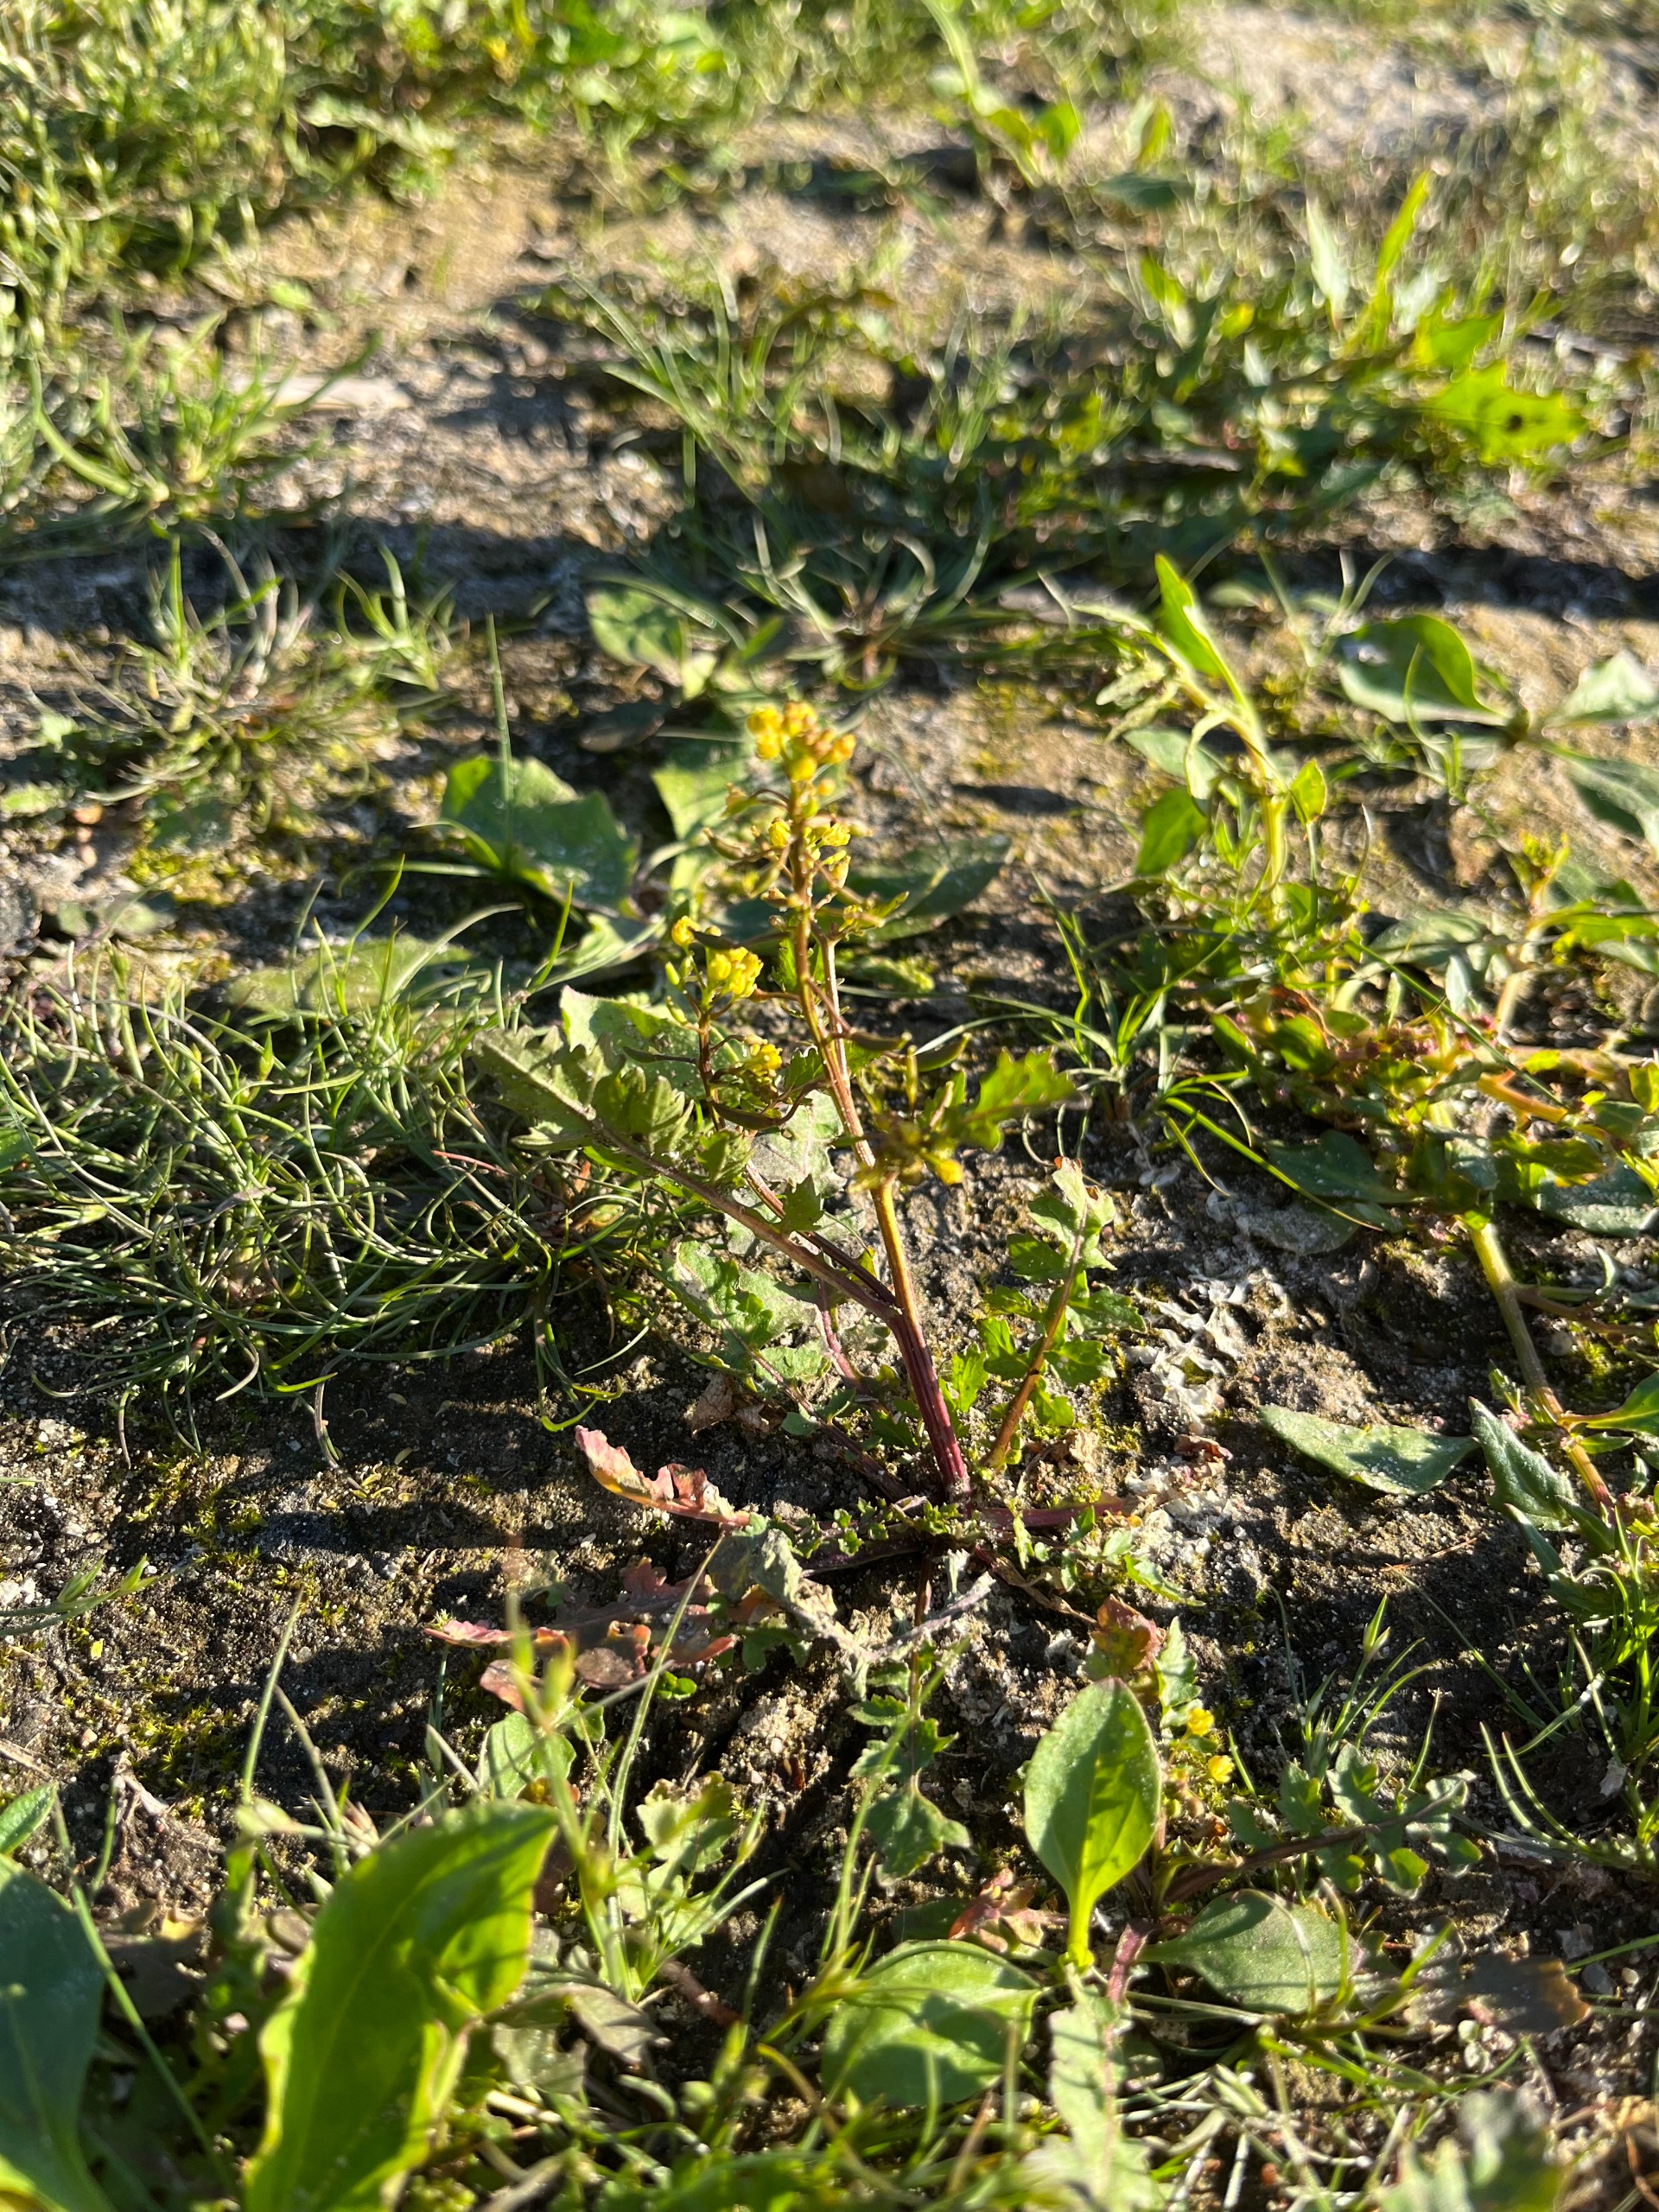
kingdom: Plantae
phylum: Tracheophyta
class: Magnoliopsida
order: Brassicales
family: Brassicaceae
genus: Rorippa
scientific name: Rorippa palustris
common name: Kær-guldkarse
